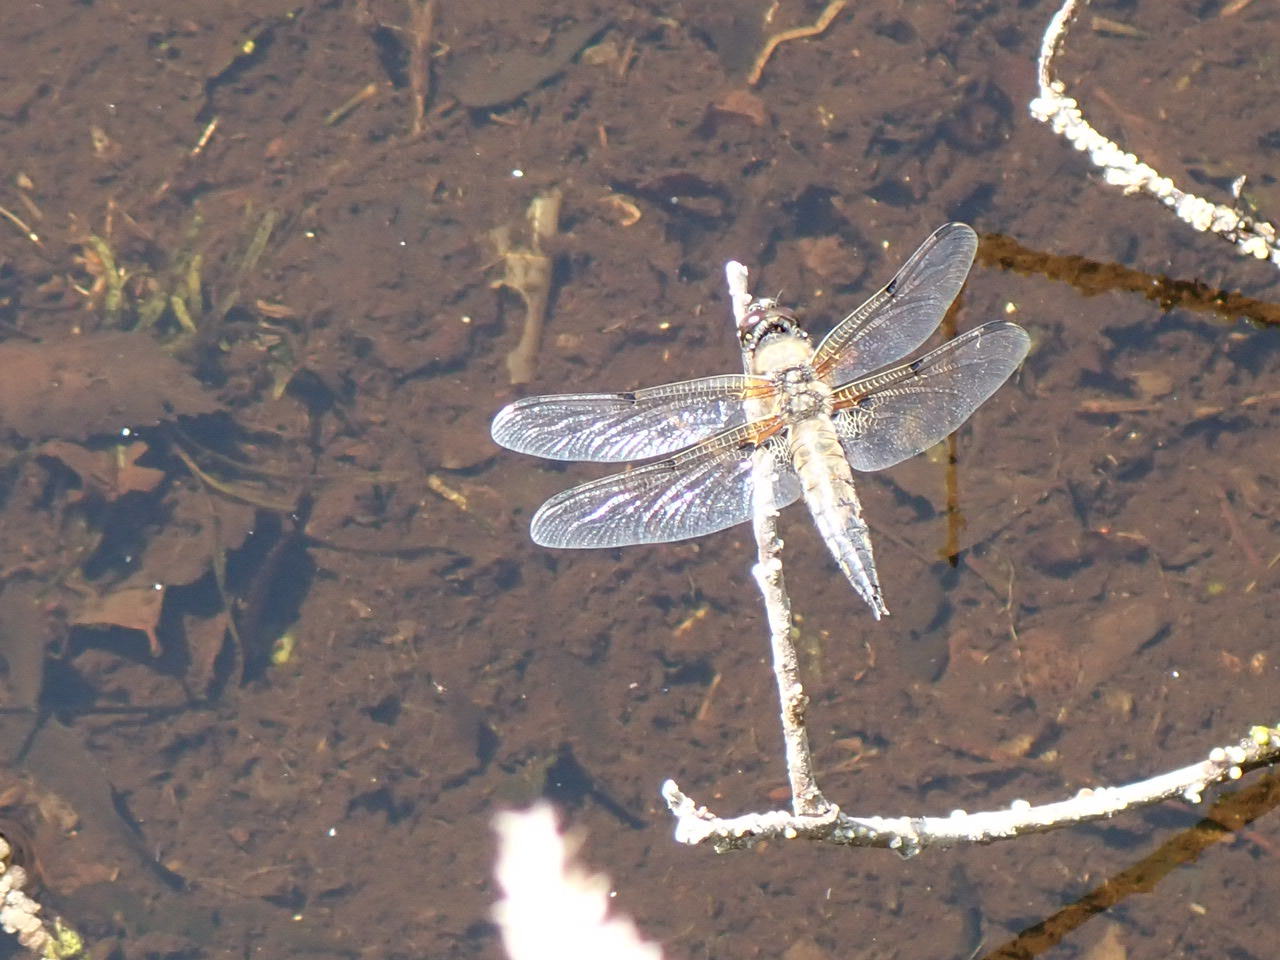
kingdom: Animalia
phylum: Arthropoda
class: Insecta
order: Odonata
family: Libellulidae
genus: Libellula
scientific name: Libellula quadrimaculata
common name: Fireplettet libel
